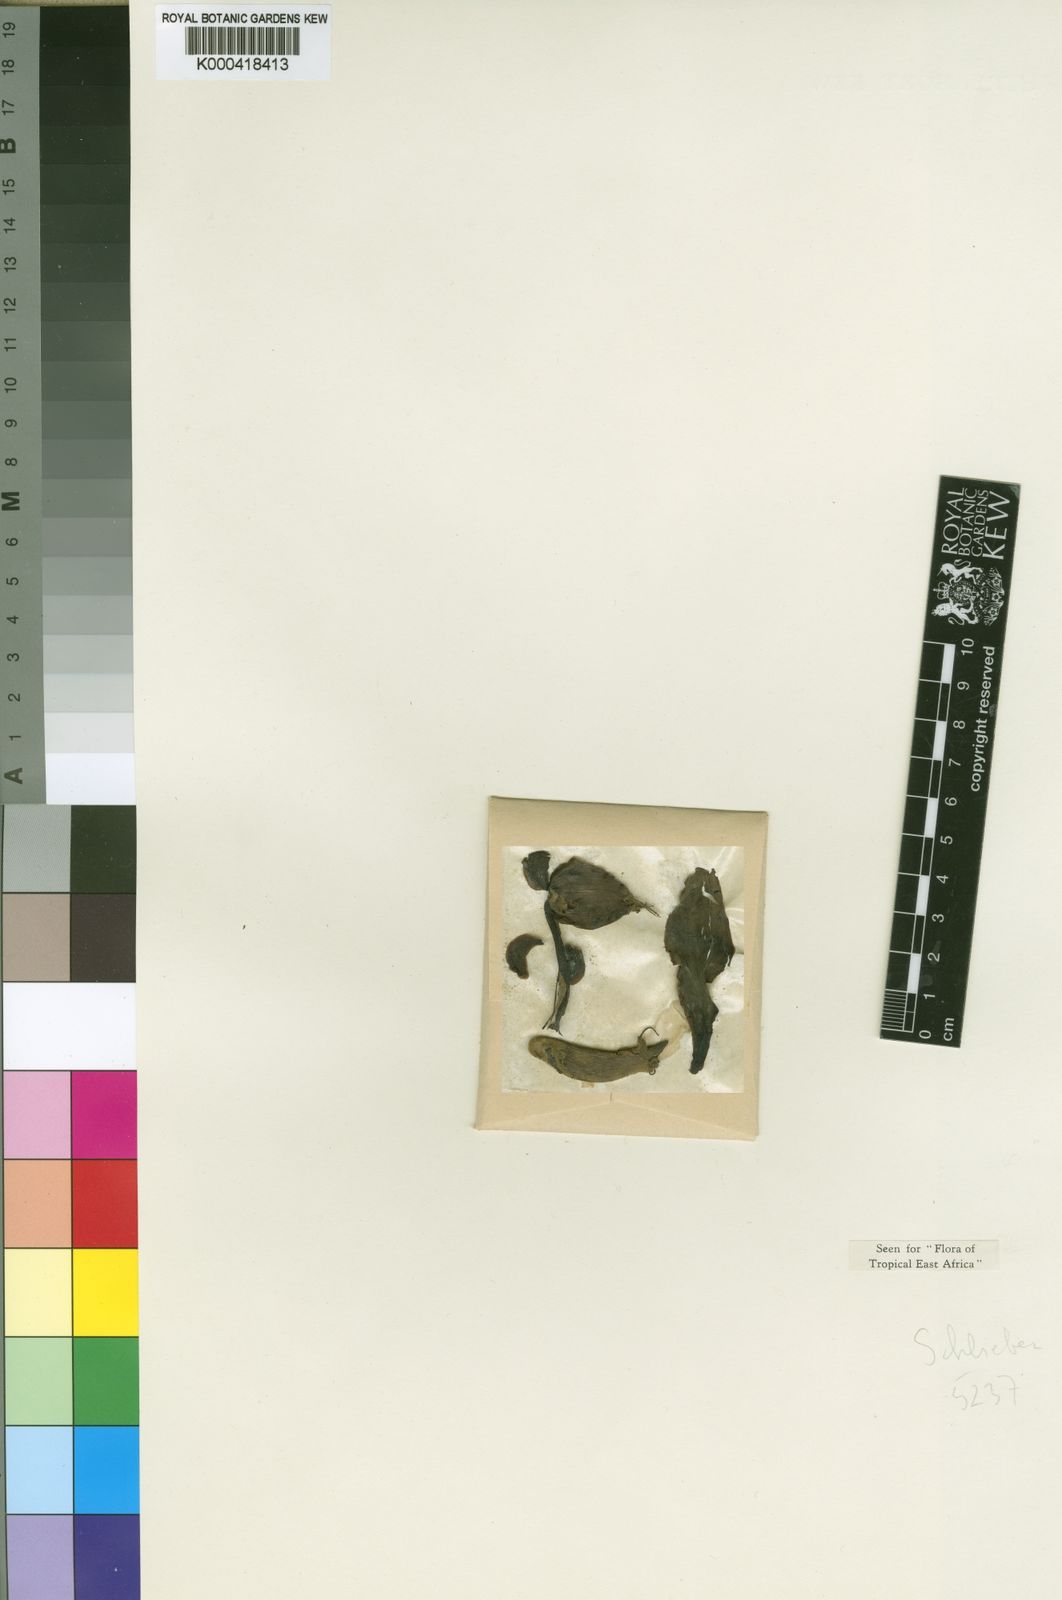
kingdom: Plantae
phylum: Tracheophyta
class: Magnoliopsida
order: Fabales
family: Fabaceae
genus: Erythrina
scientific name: Erythrina
